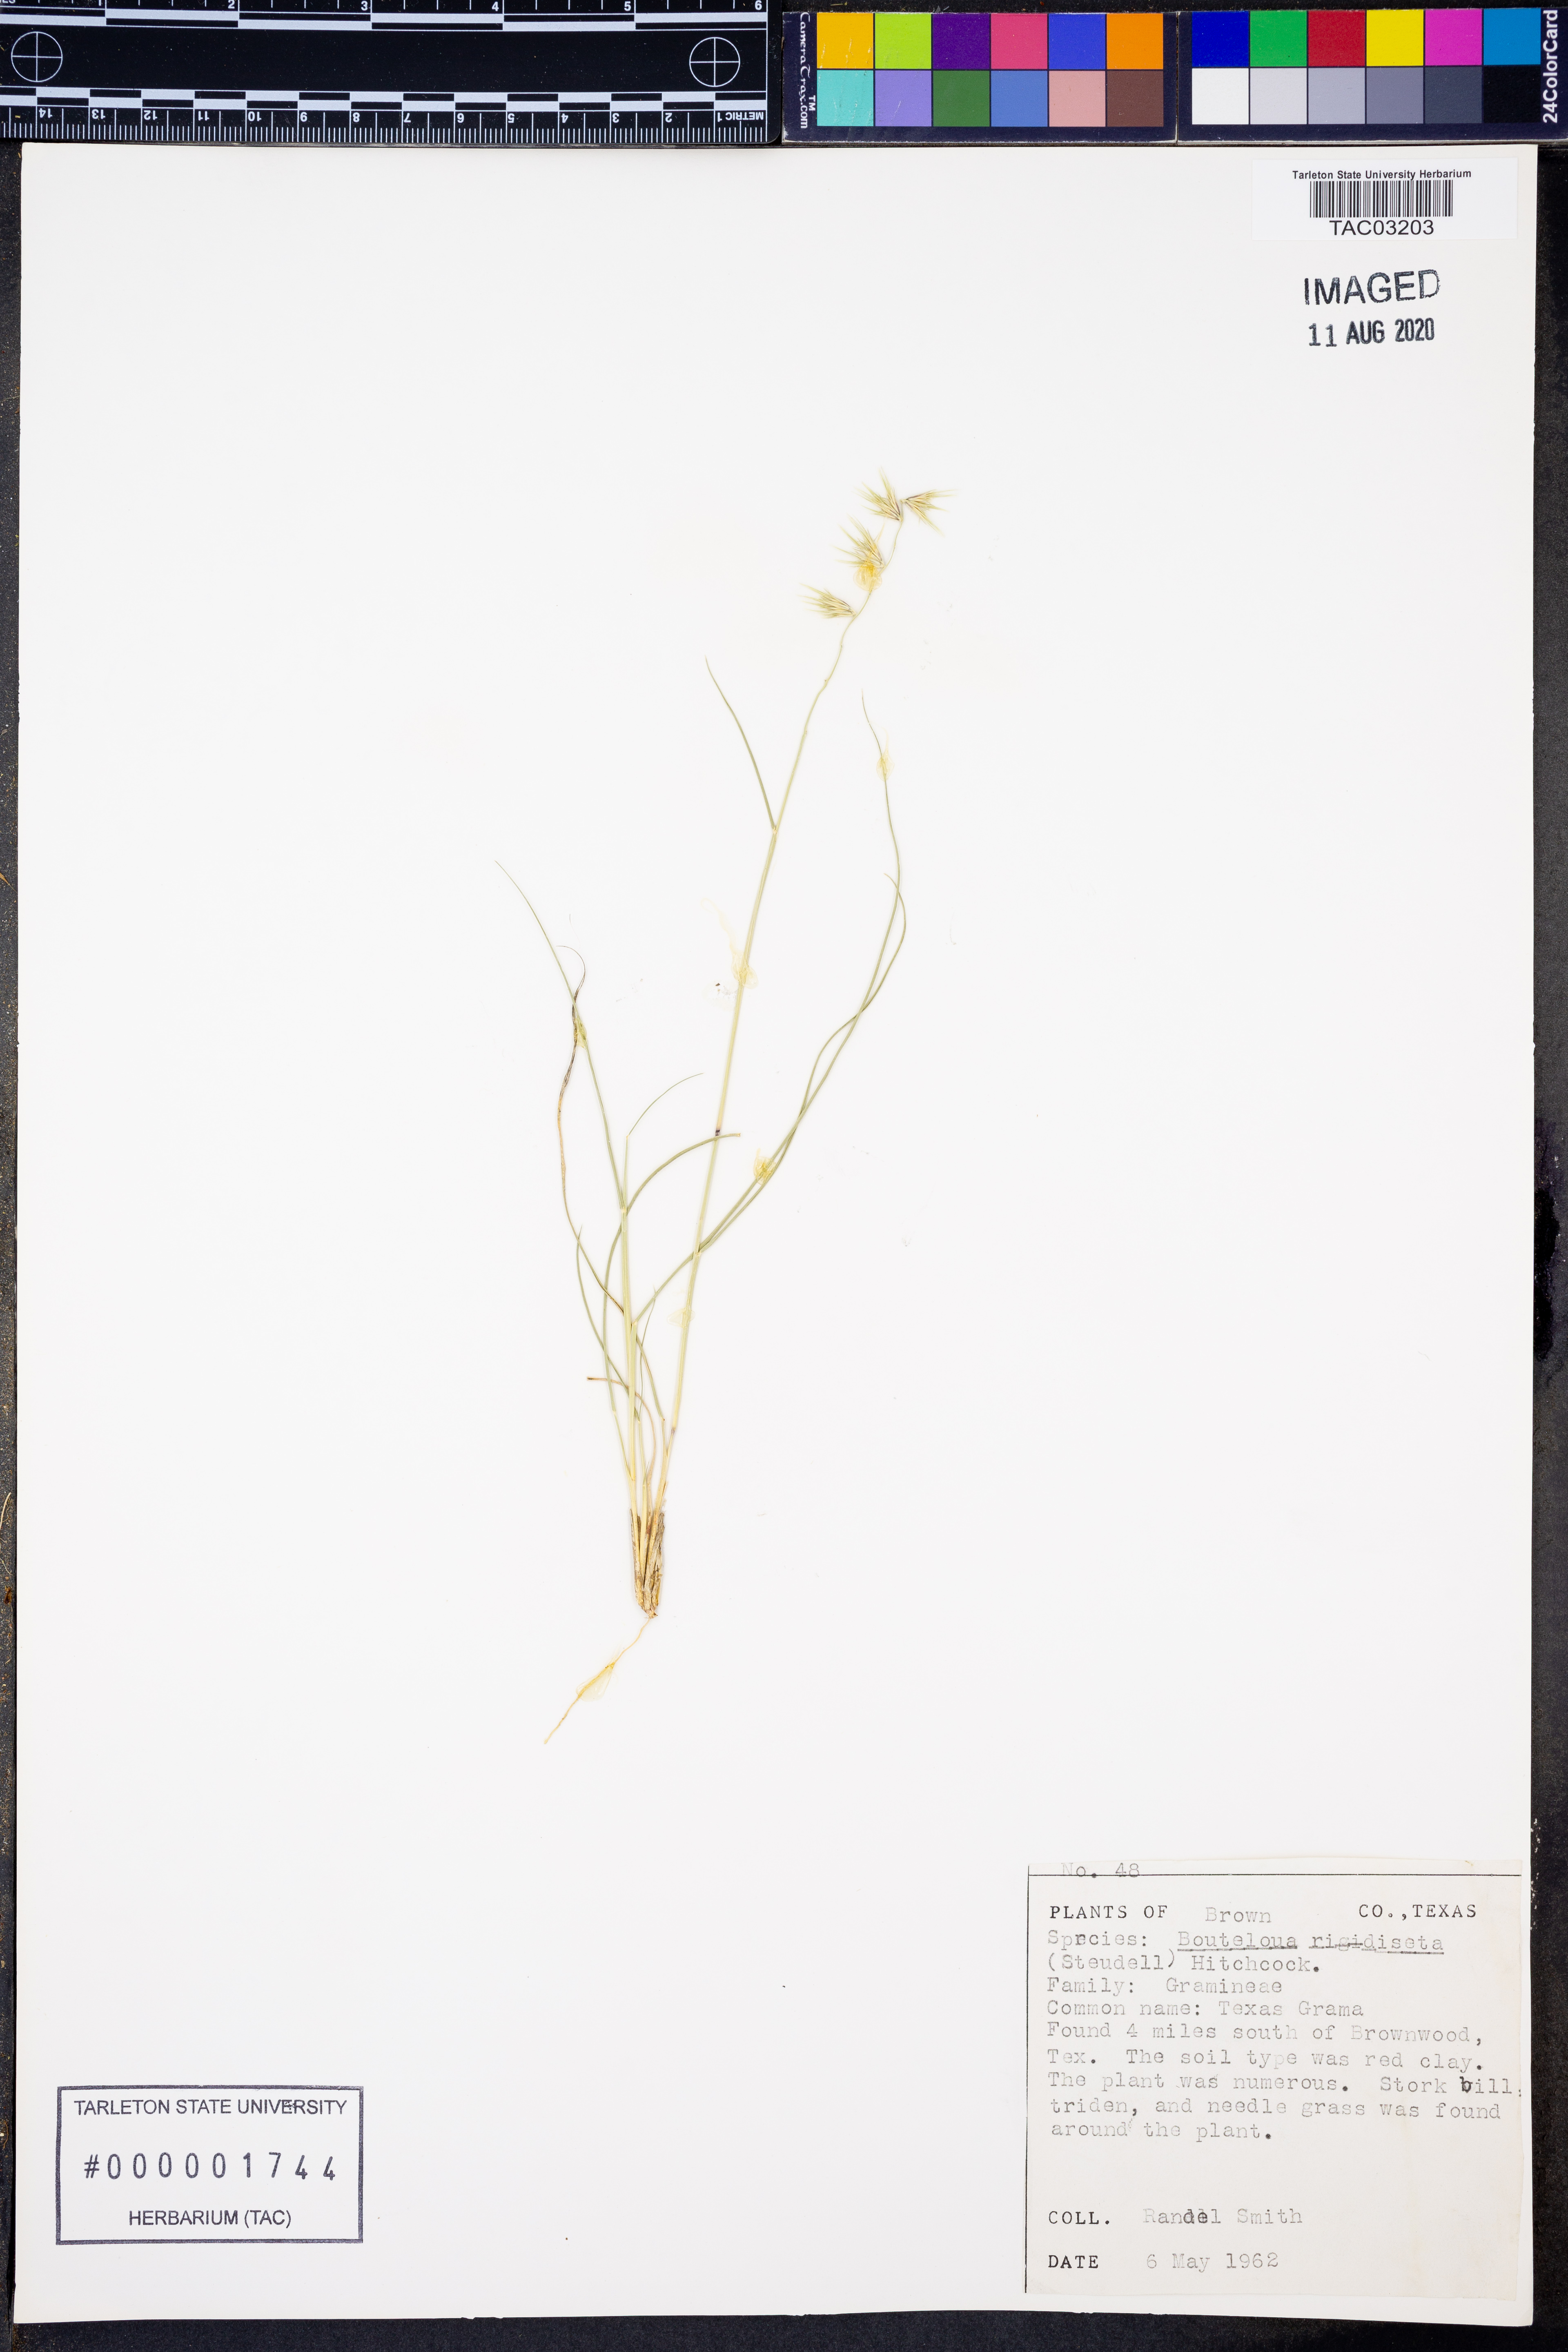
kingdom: Plantae
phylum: Tracheophyta
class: Liliopsida
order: Poales
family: Poaceae
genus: Bouteloua
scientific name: Bouteloua rigidiseta
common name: Texas grama
